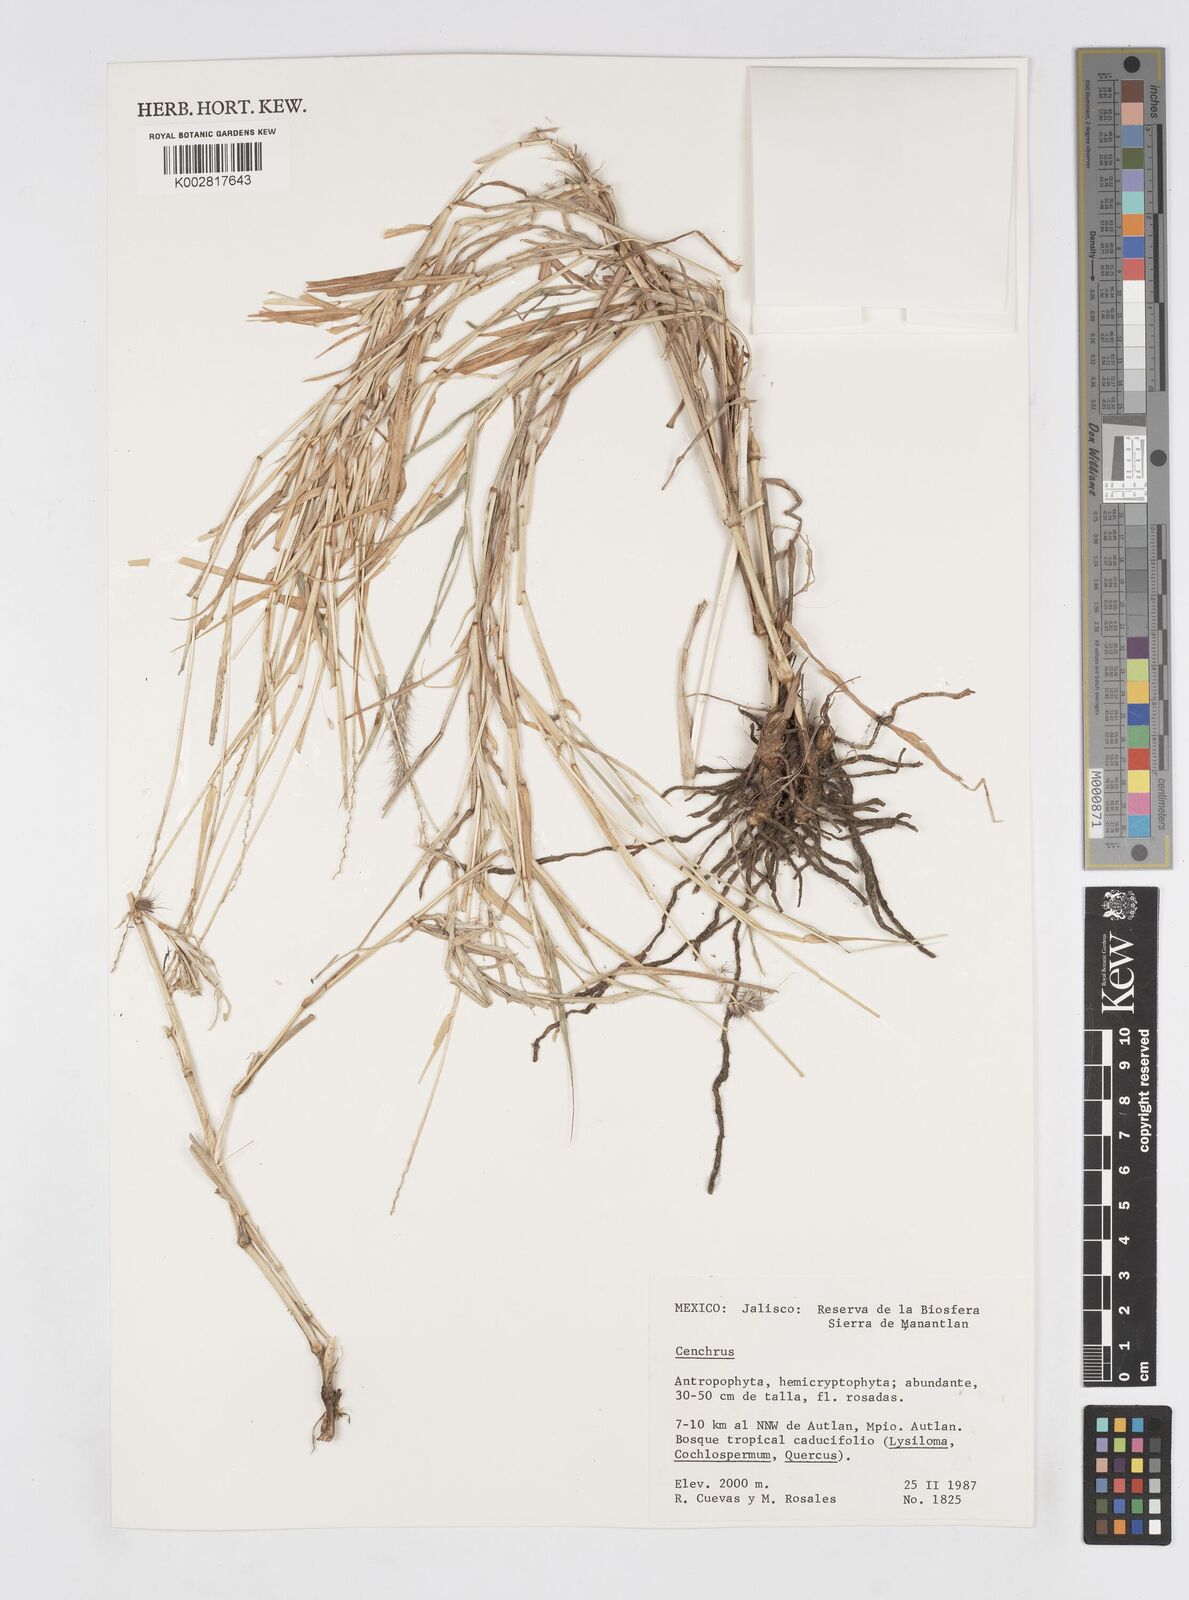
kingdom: Plantae
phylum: Tracheophyta
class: Liliopsida
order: Poales
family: Poaceae
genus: Cenchrus
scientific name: Cenchrus
